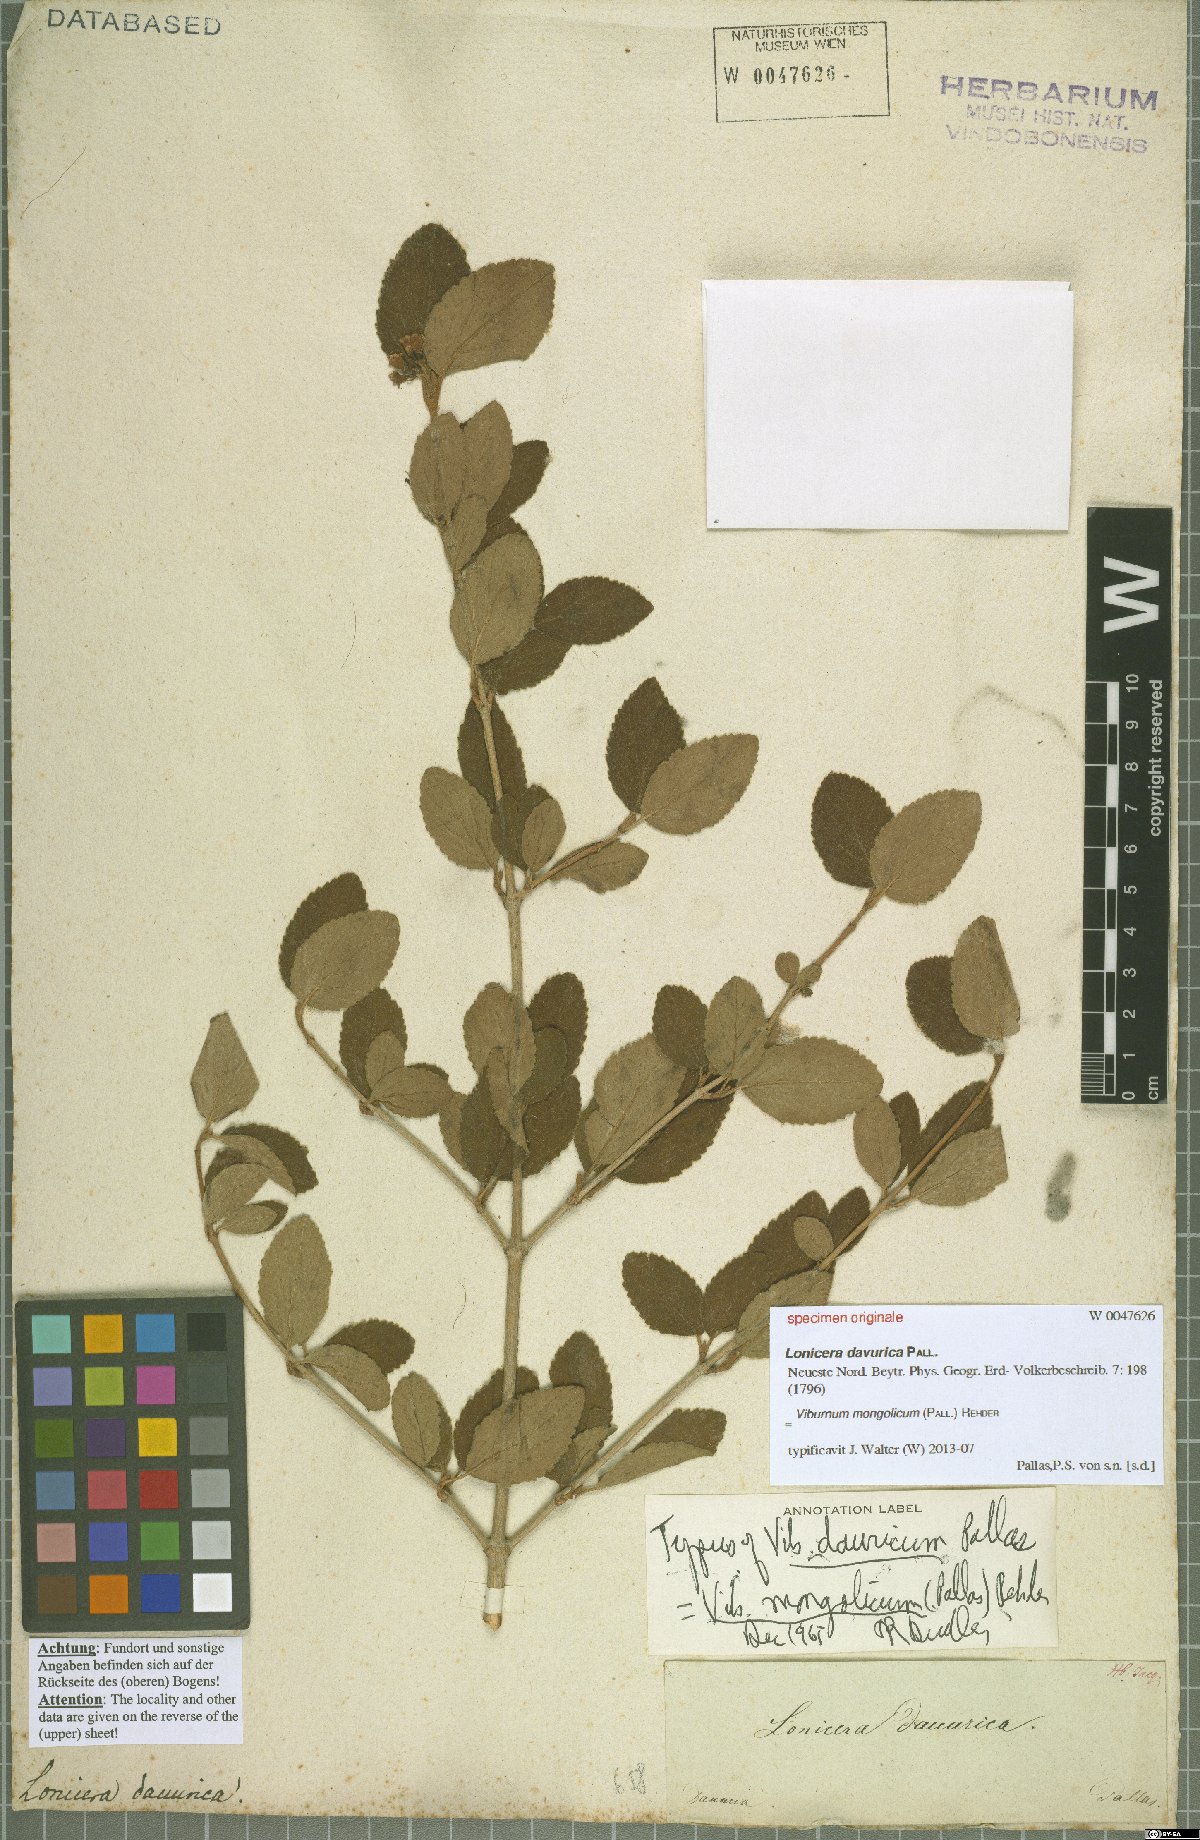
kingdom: Plantae
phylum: Tracheophyta
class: Magnoliopsida
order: Dipsacales
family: Viburnaceae
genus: Viburnum
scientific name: Viburnum mongolicum
